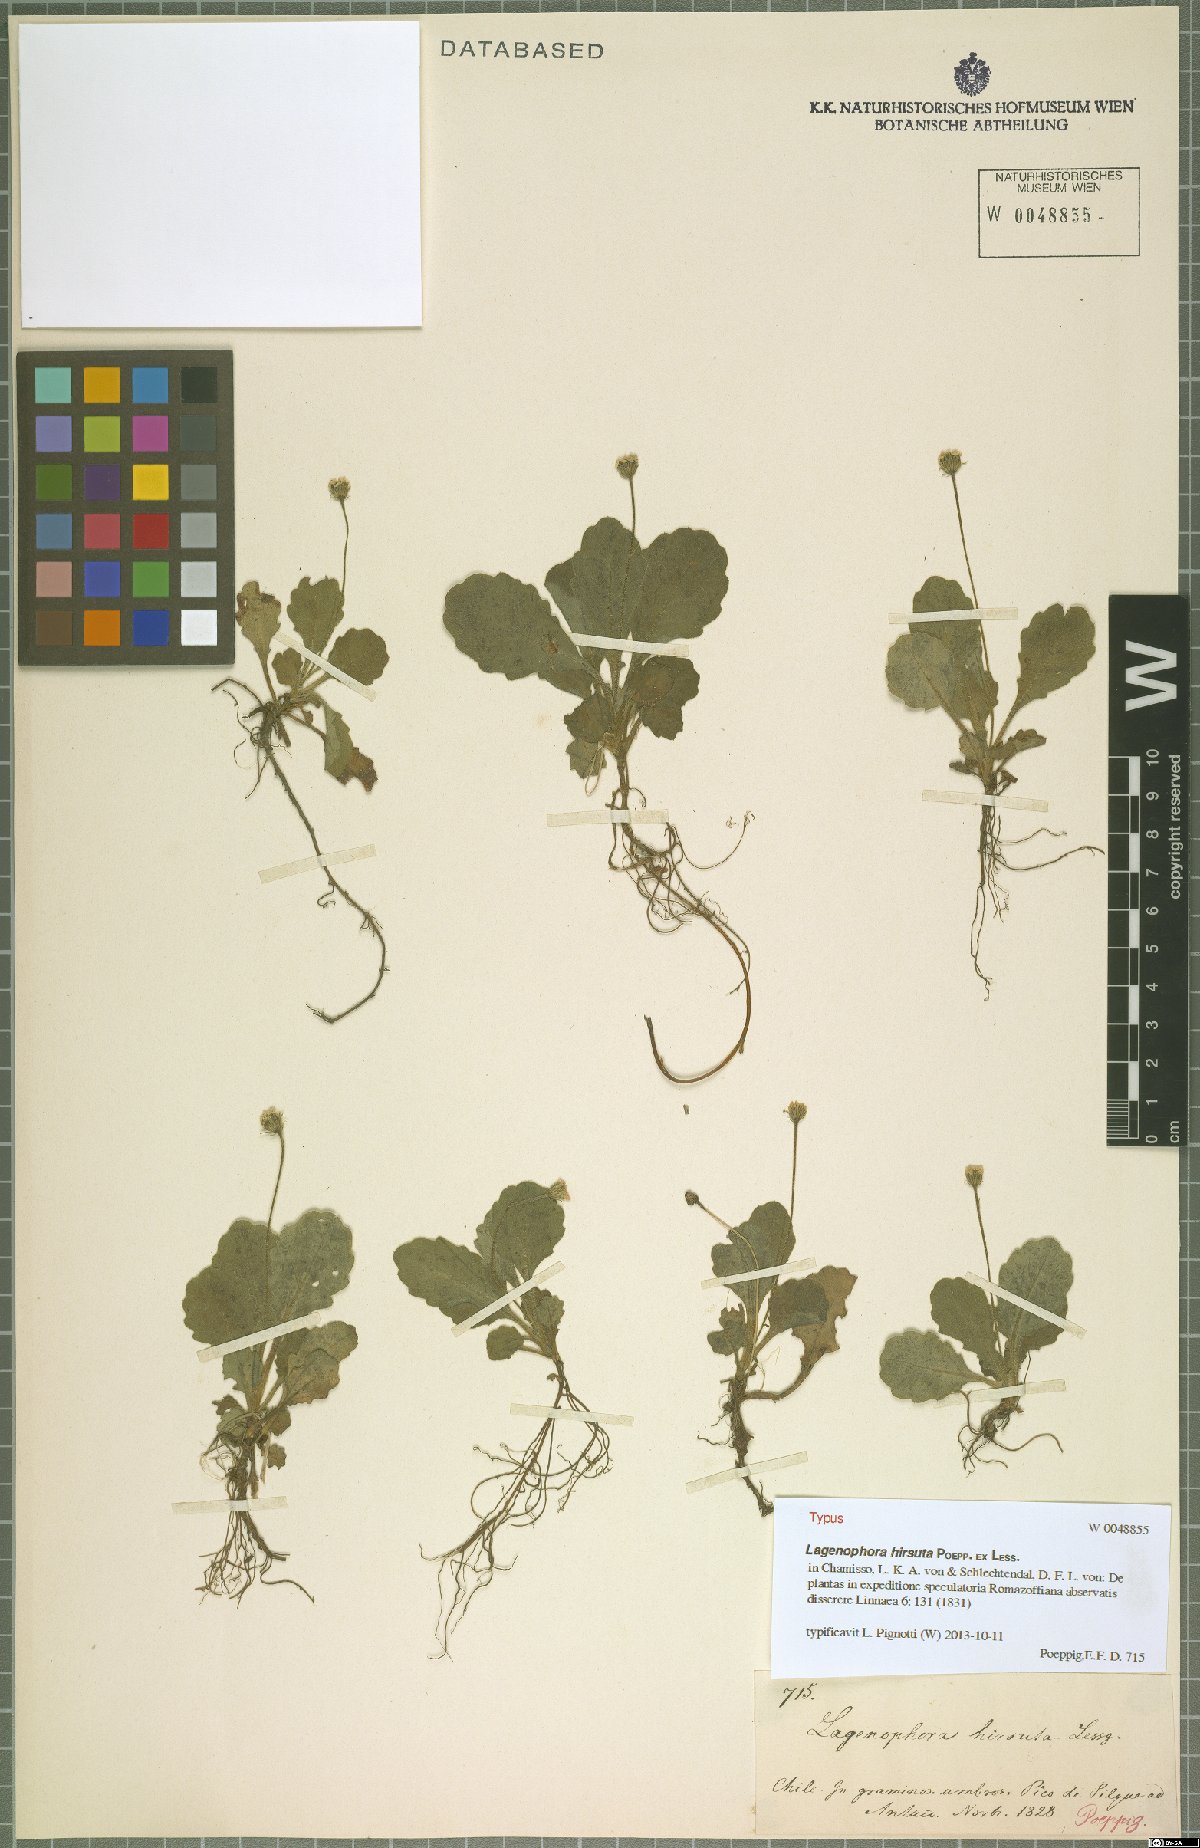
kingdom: Plantae
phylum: Tracheophyta
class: Magnoliopsida
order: Asterales
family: Asteraceae
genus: Lagenophora
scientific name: Lagenophora hirsuta
